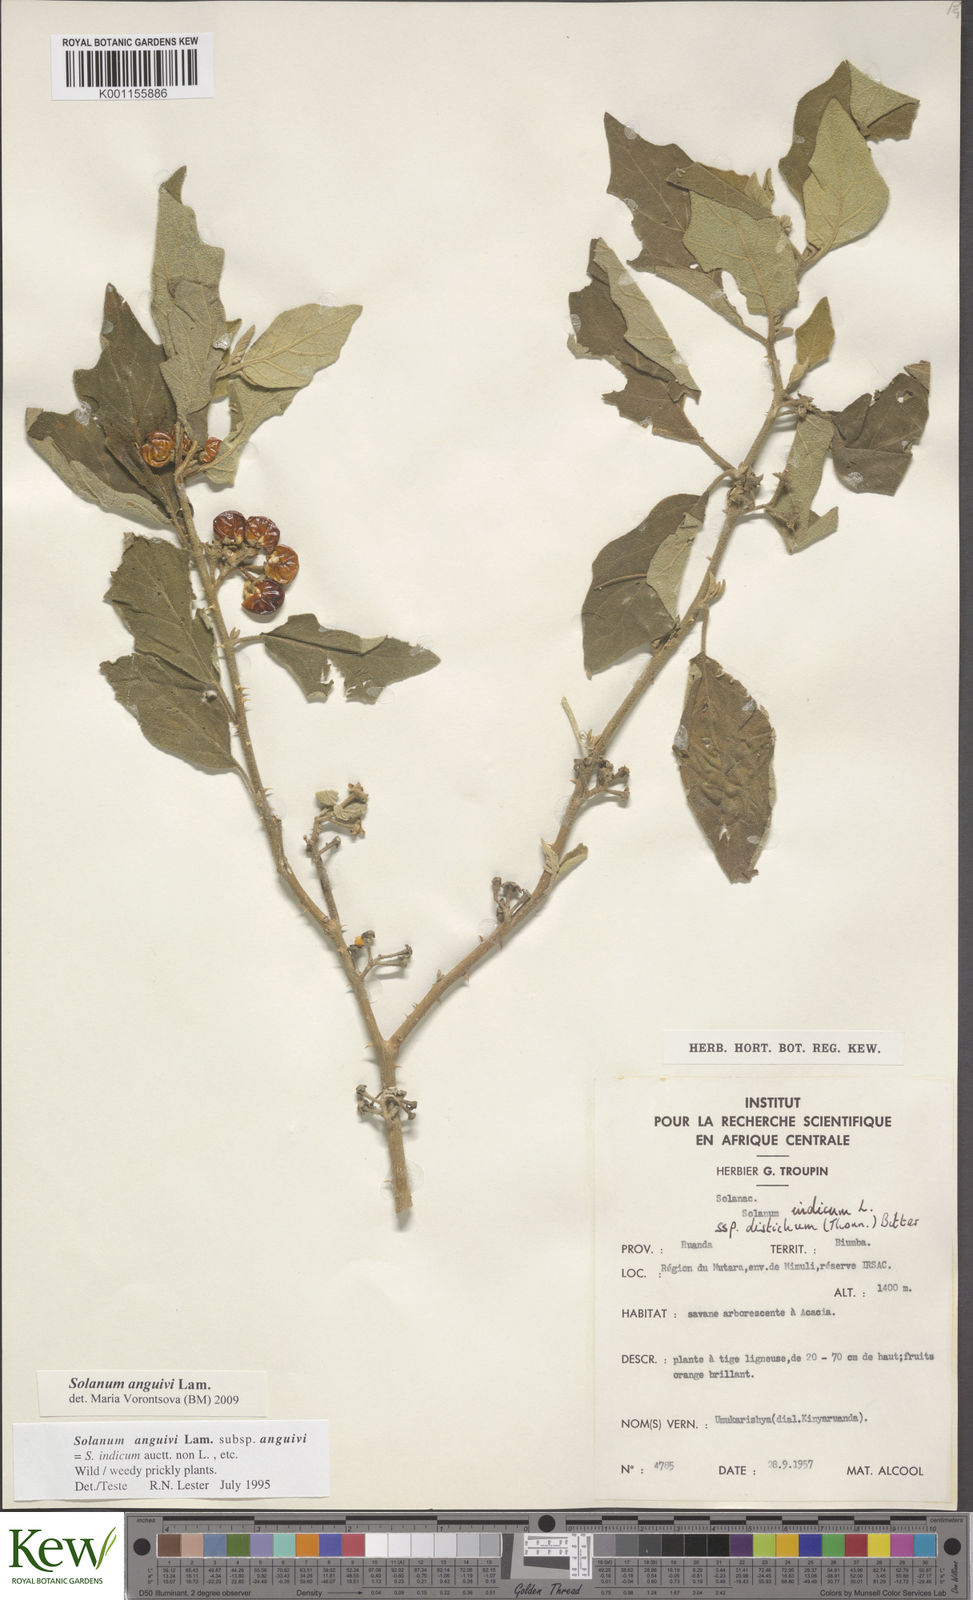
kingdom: Plantae
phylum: Tracheophyta
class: Magnoliopsida
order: Solanales
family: Solanaceae
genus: Solanum
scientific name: Solanum anguivi
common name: Forest bitterberry
